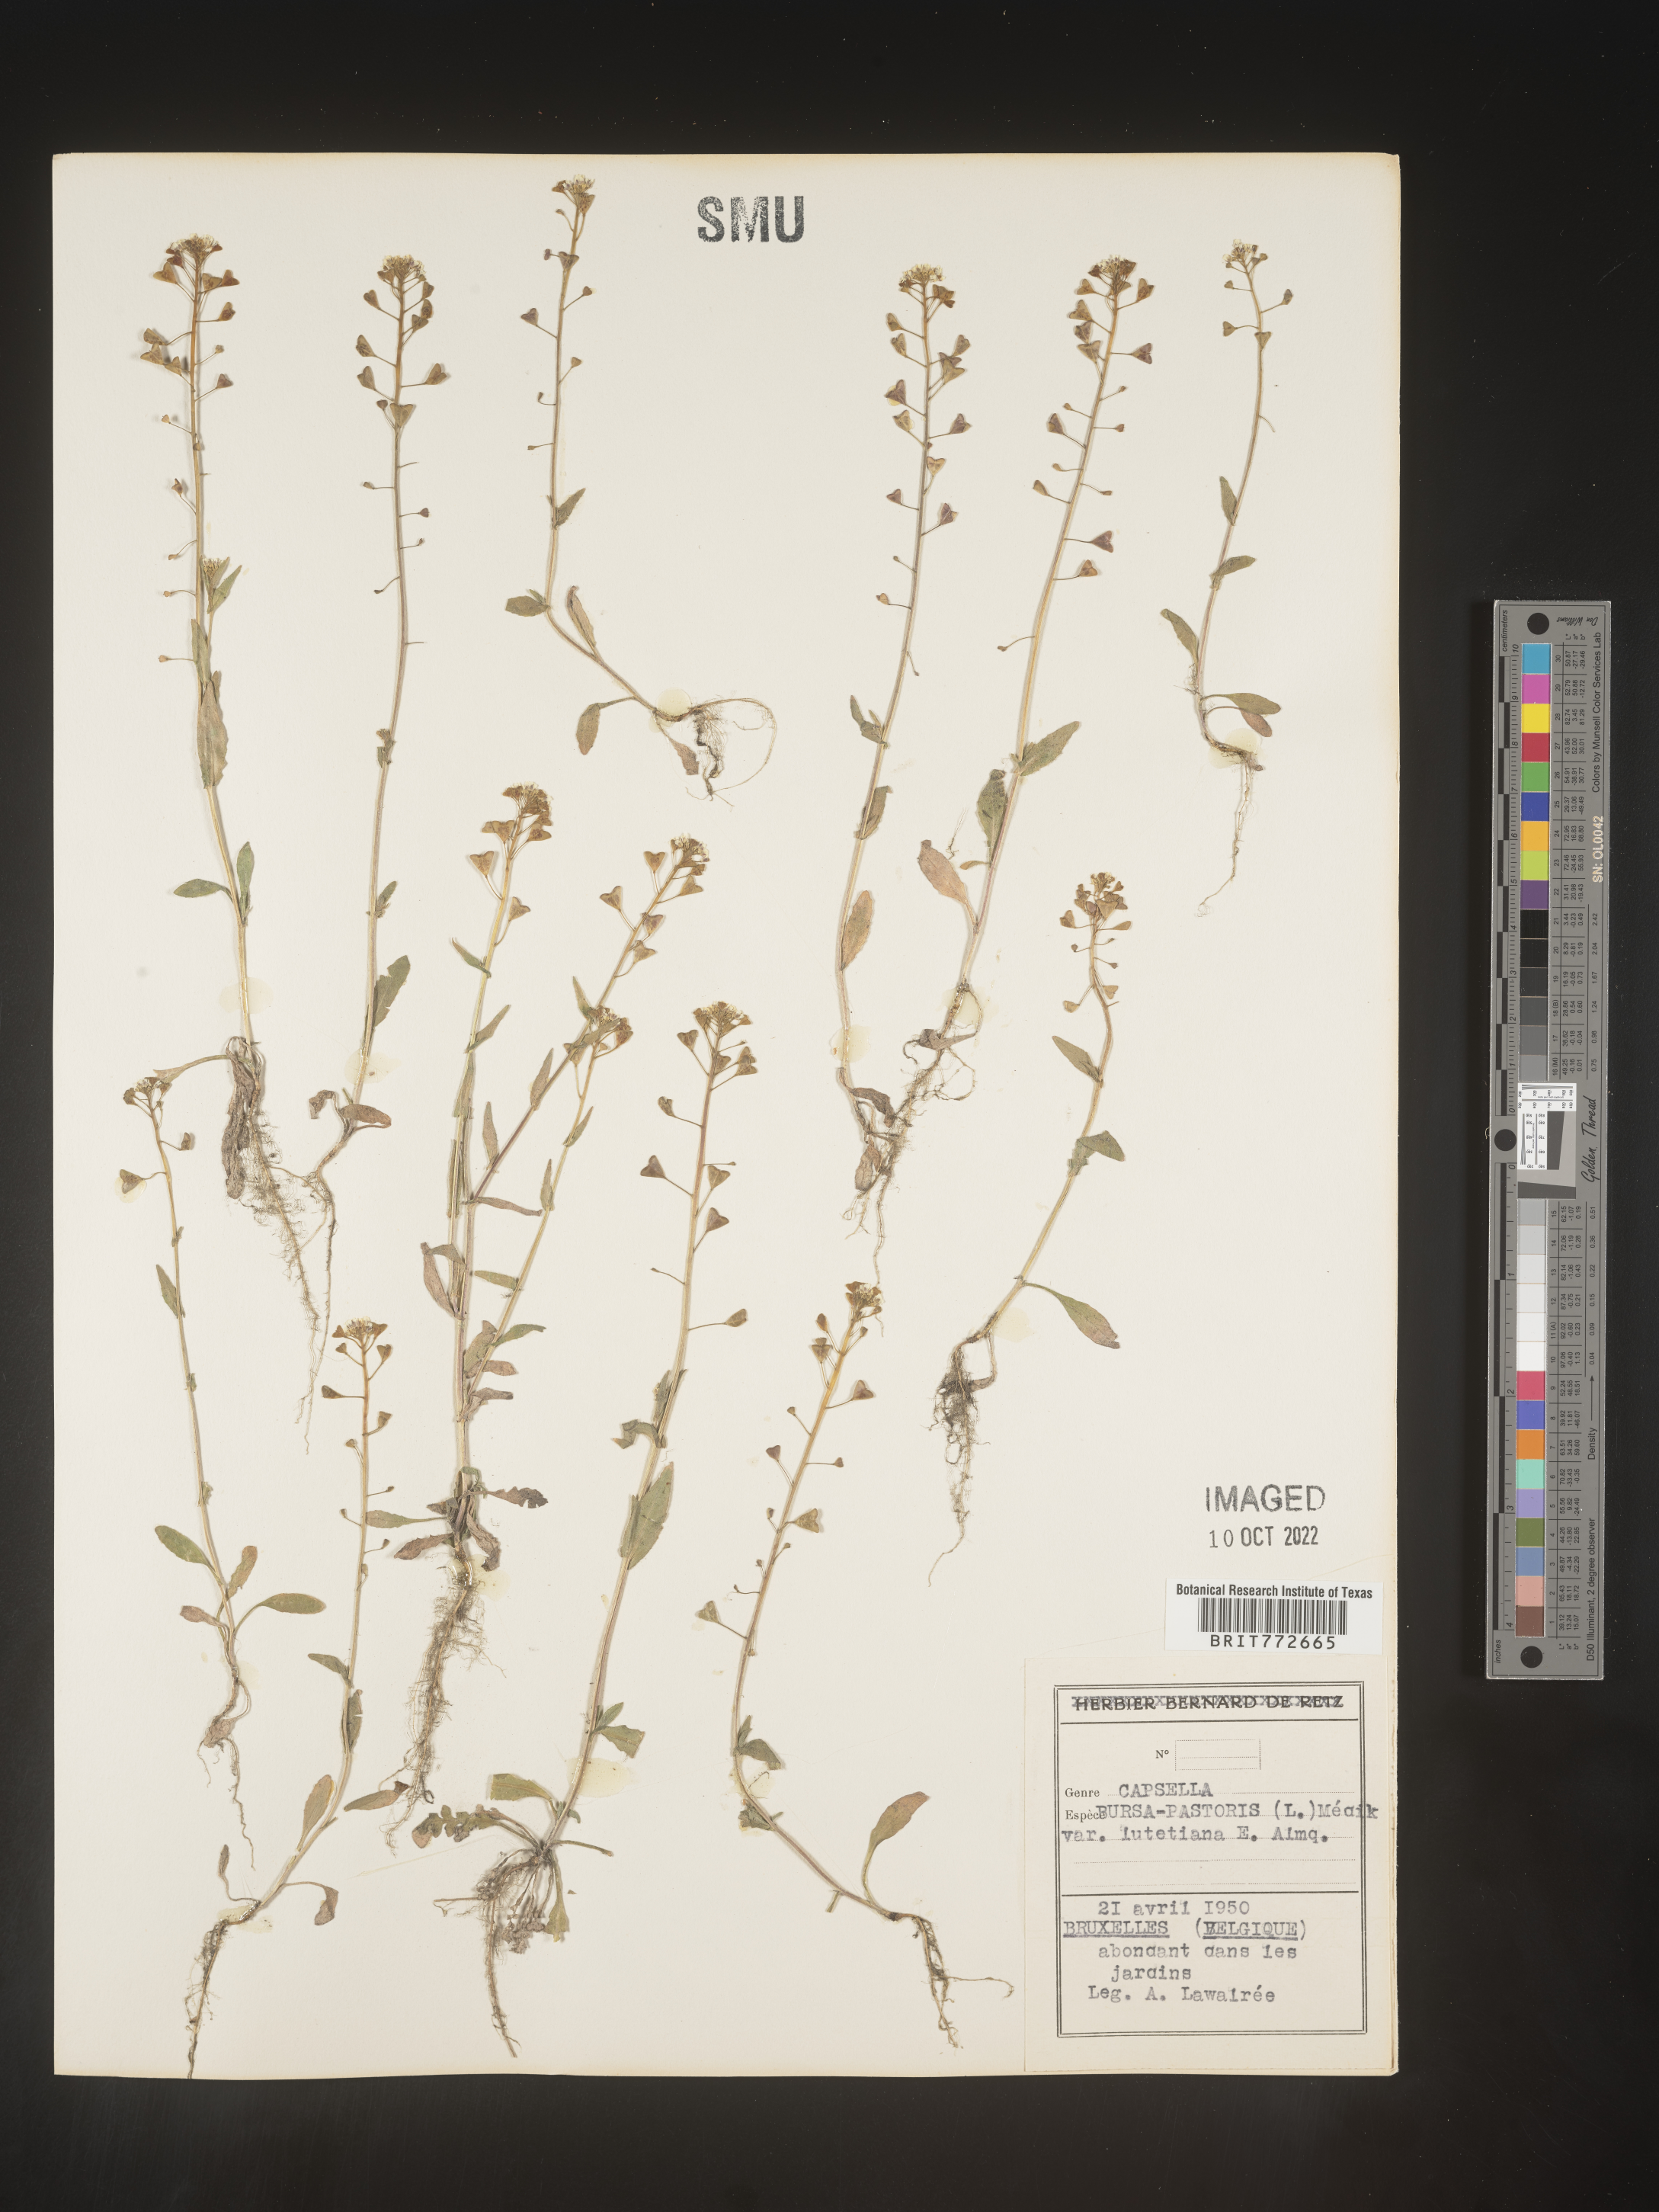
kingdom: Plantae
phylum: Tracheophyta
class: Magnoliopsida
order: Brassicales
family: Brassicaceae
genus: Capsella
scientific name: Capsella
